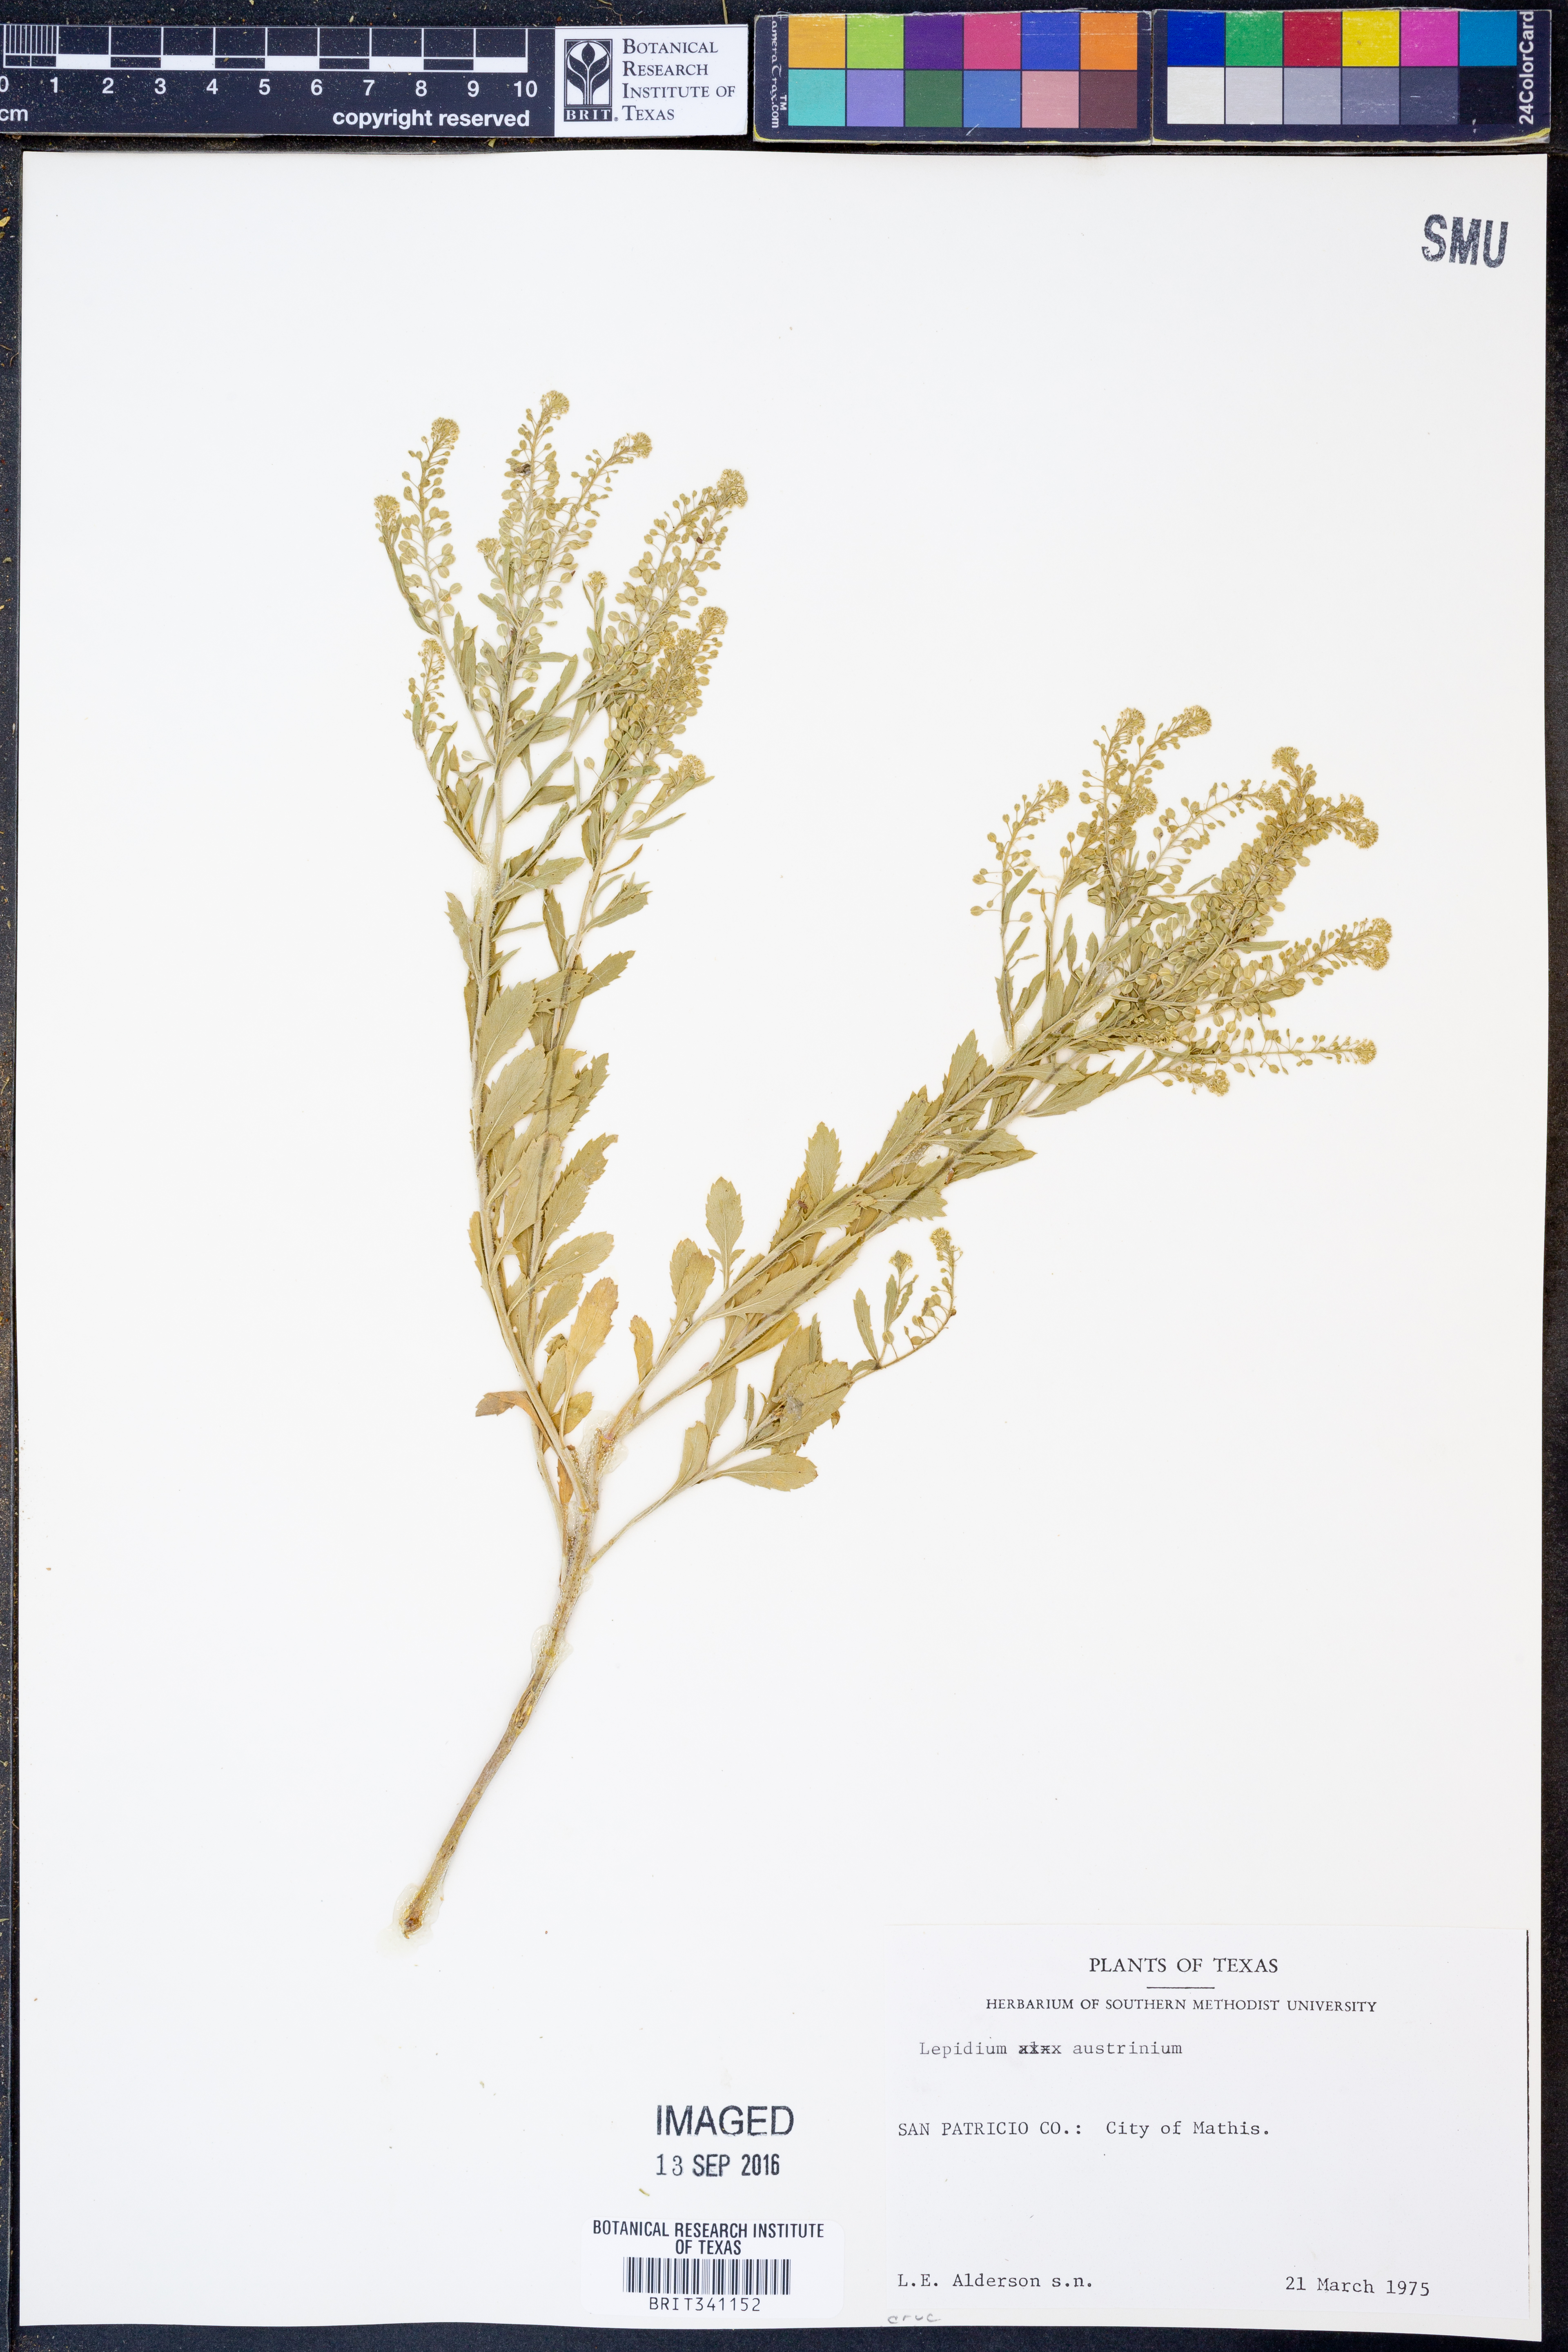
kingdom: Plantae
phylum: Tracheophyta
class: Magnoliopsida
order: Brassicales
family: Brassicaceae
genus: Lepidium
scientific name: Lepidium austrinum
